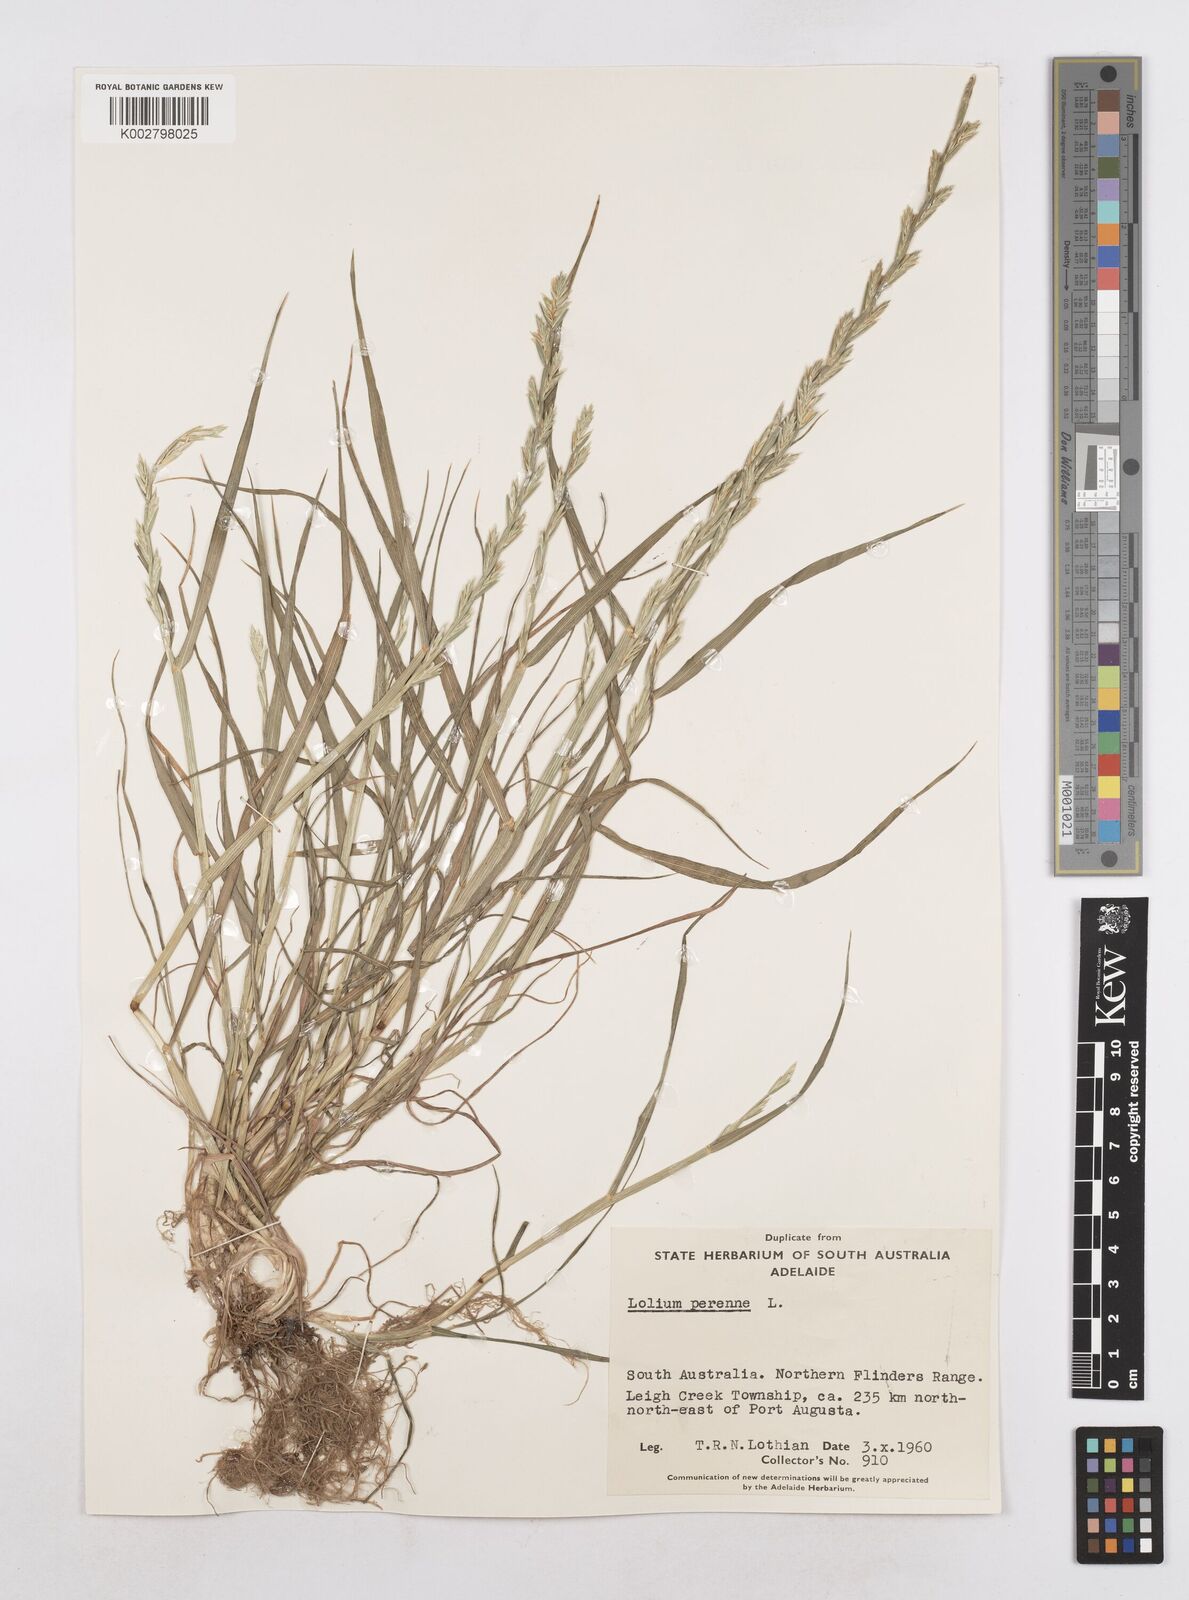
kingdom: Plantae
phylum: Tracheophyta
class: Liliopsida
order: Poales
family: Poaceae
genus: Lolium
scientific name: Lolium perenne
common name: Perennial ryegrass
